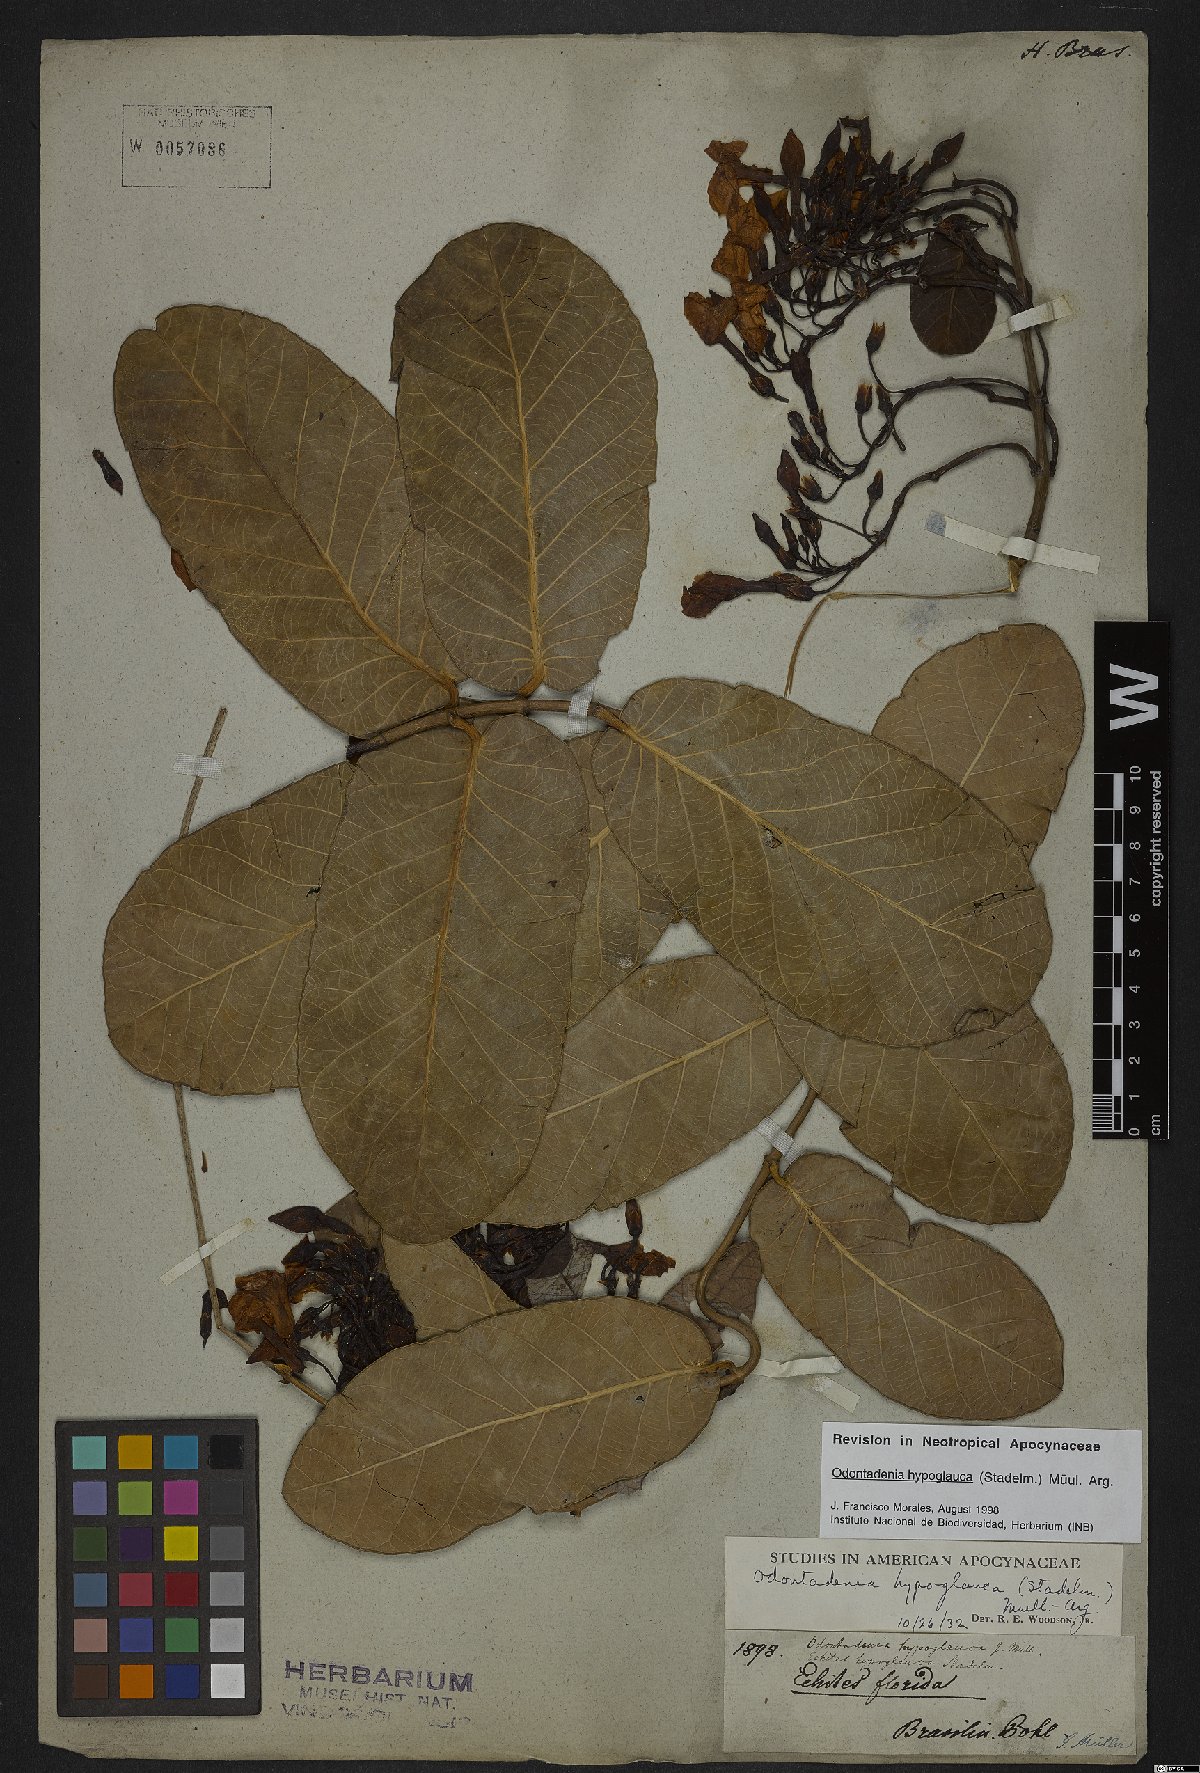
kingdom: Plantae
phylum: Tracheophyta
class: Magnoliopsida
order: Gentianales
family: Apocynaceae
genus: Odontadenia
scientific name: Odontadenia hypoglauca
